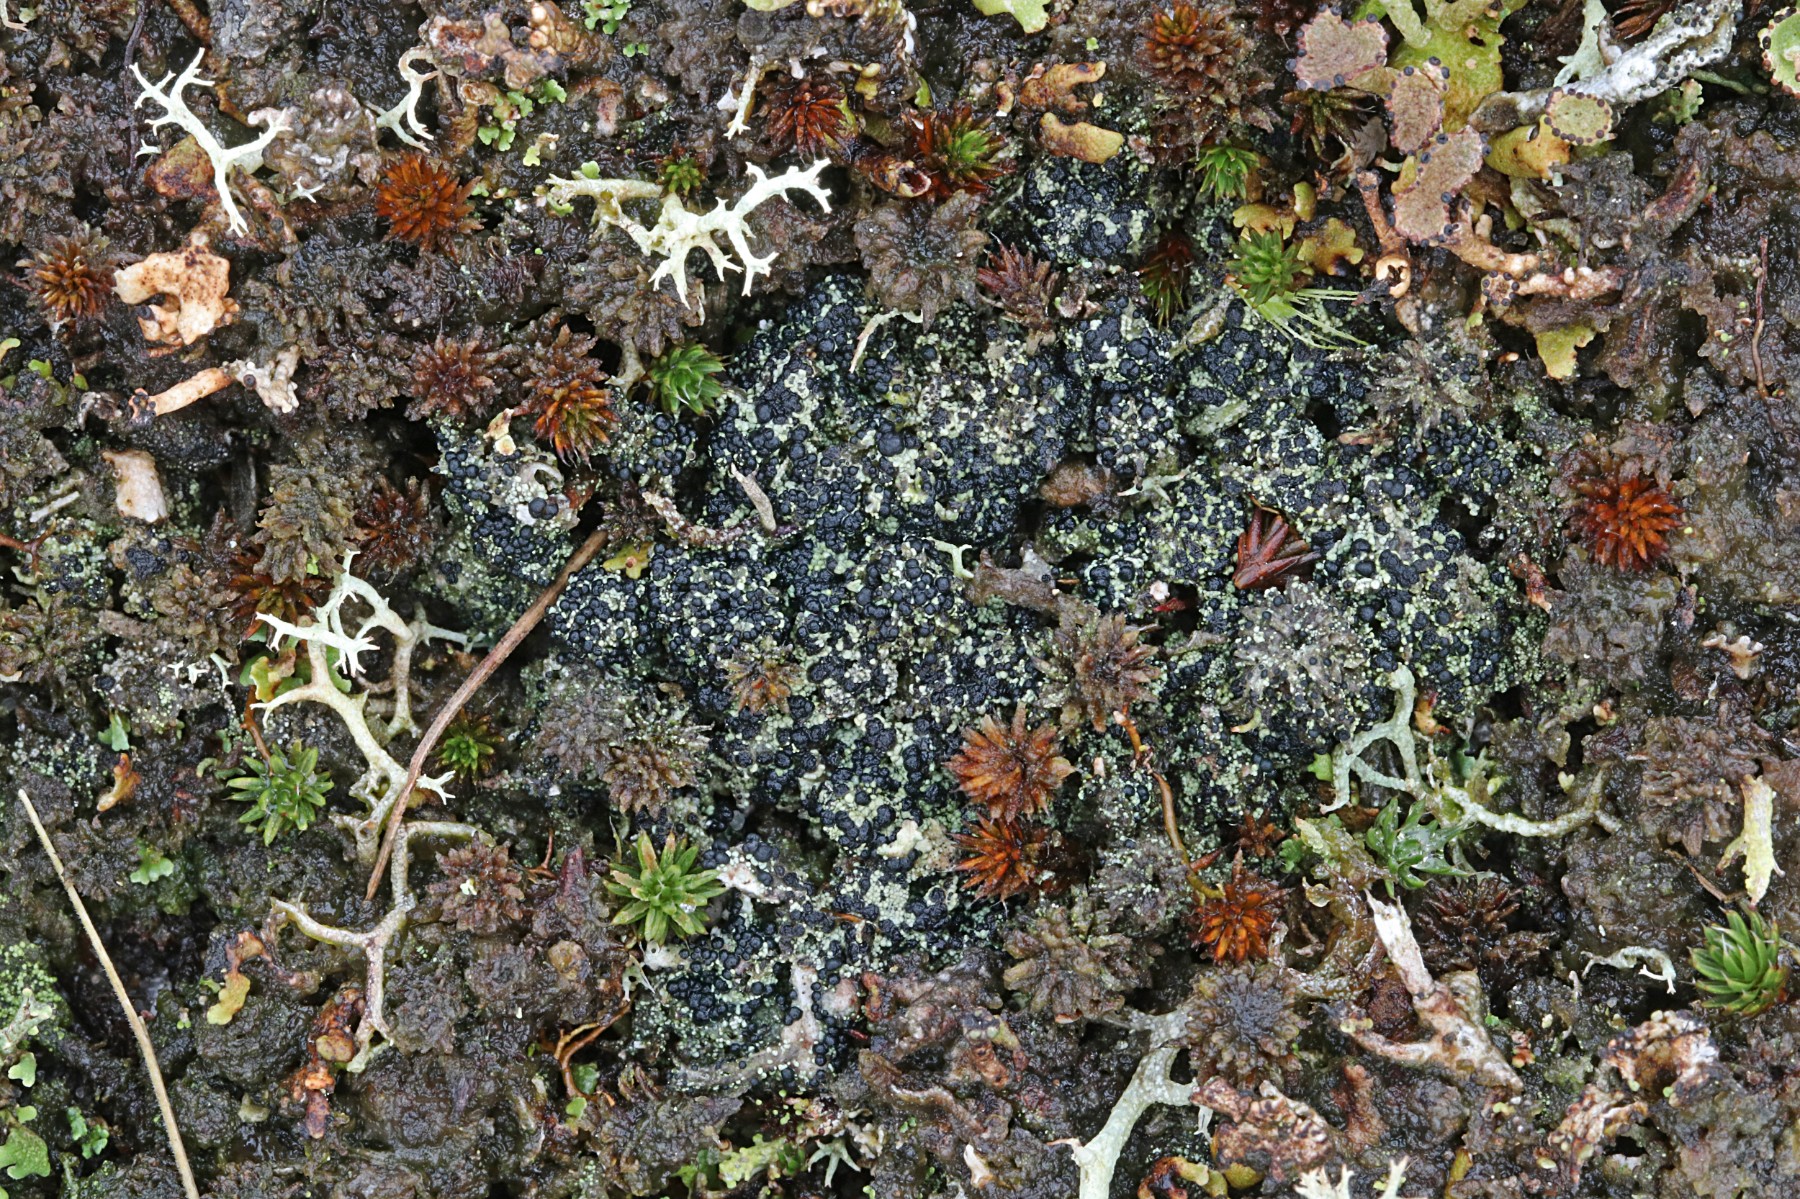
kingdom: Fungi
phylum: Ascomycota
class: Lecanoromycetes
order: Lecanorales
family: Byssolomataceae
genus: Micarea
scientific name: Micarea lignaria
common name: tørve-knaplav
